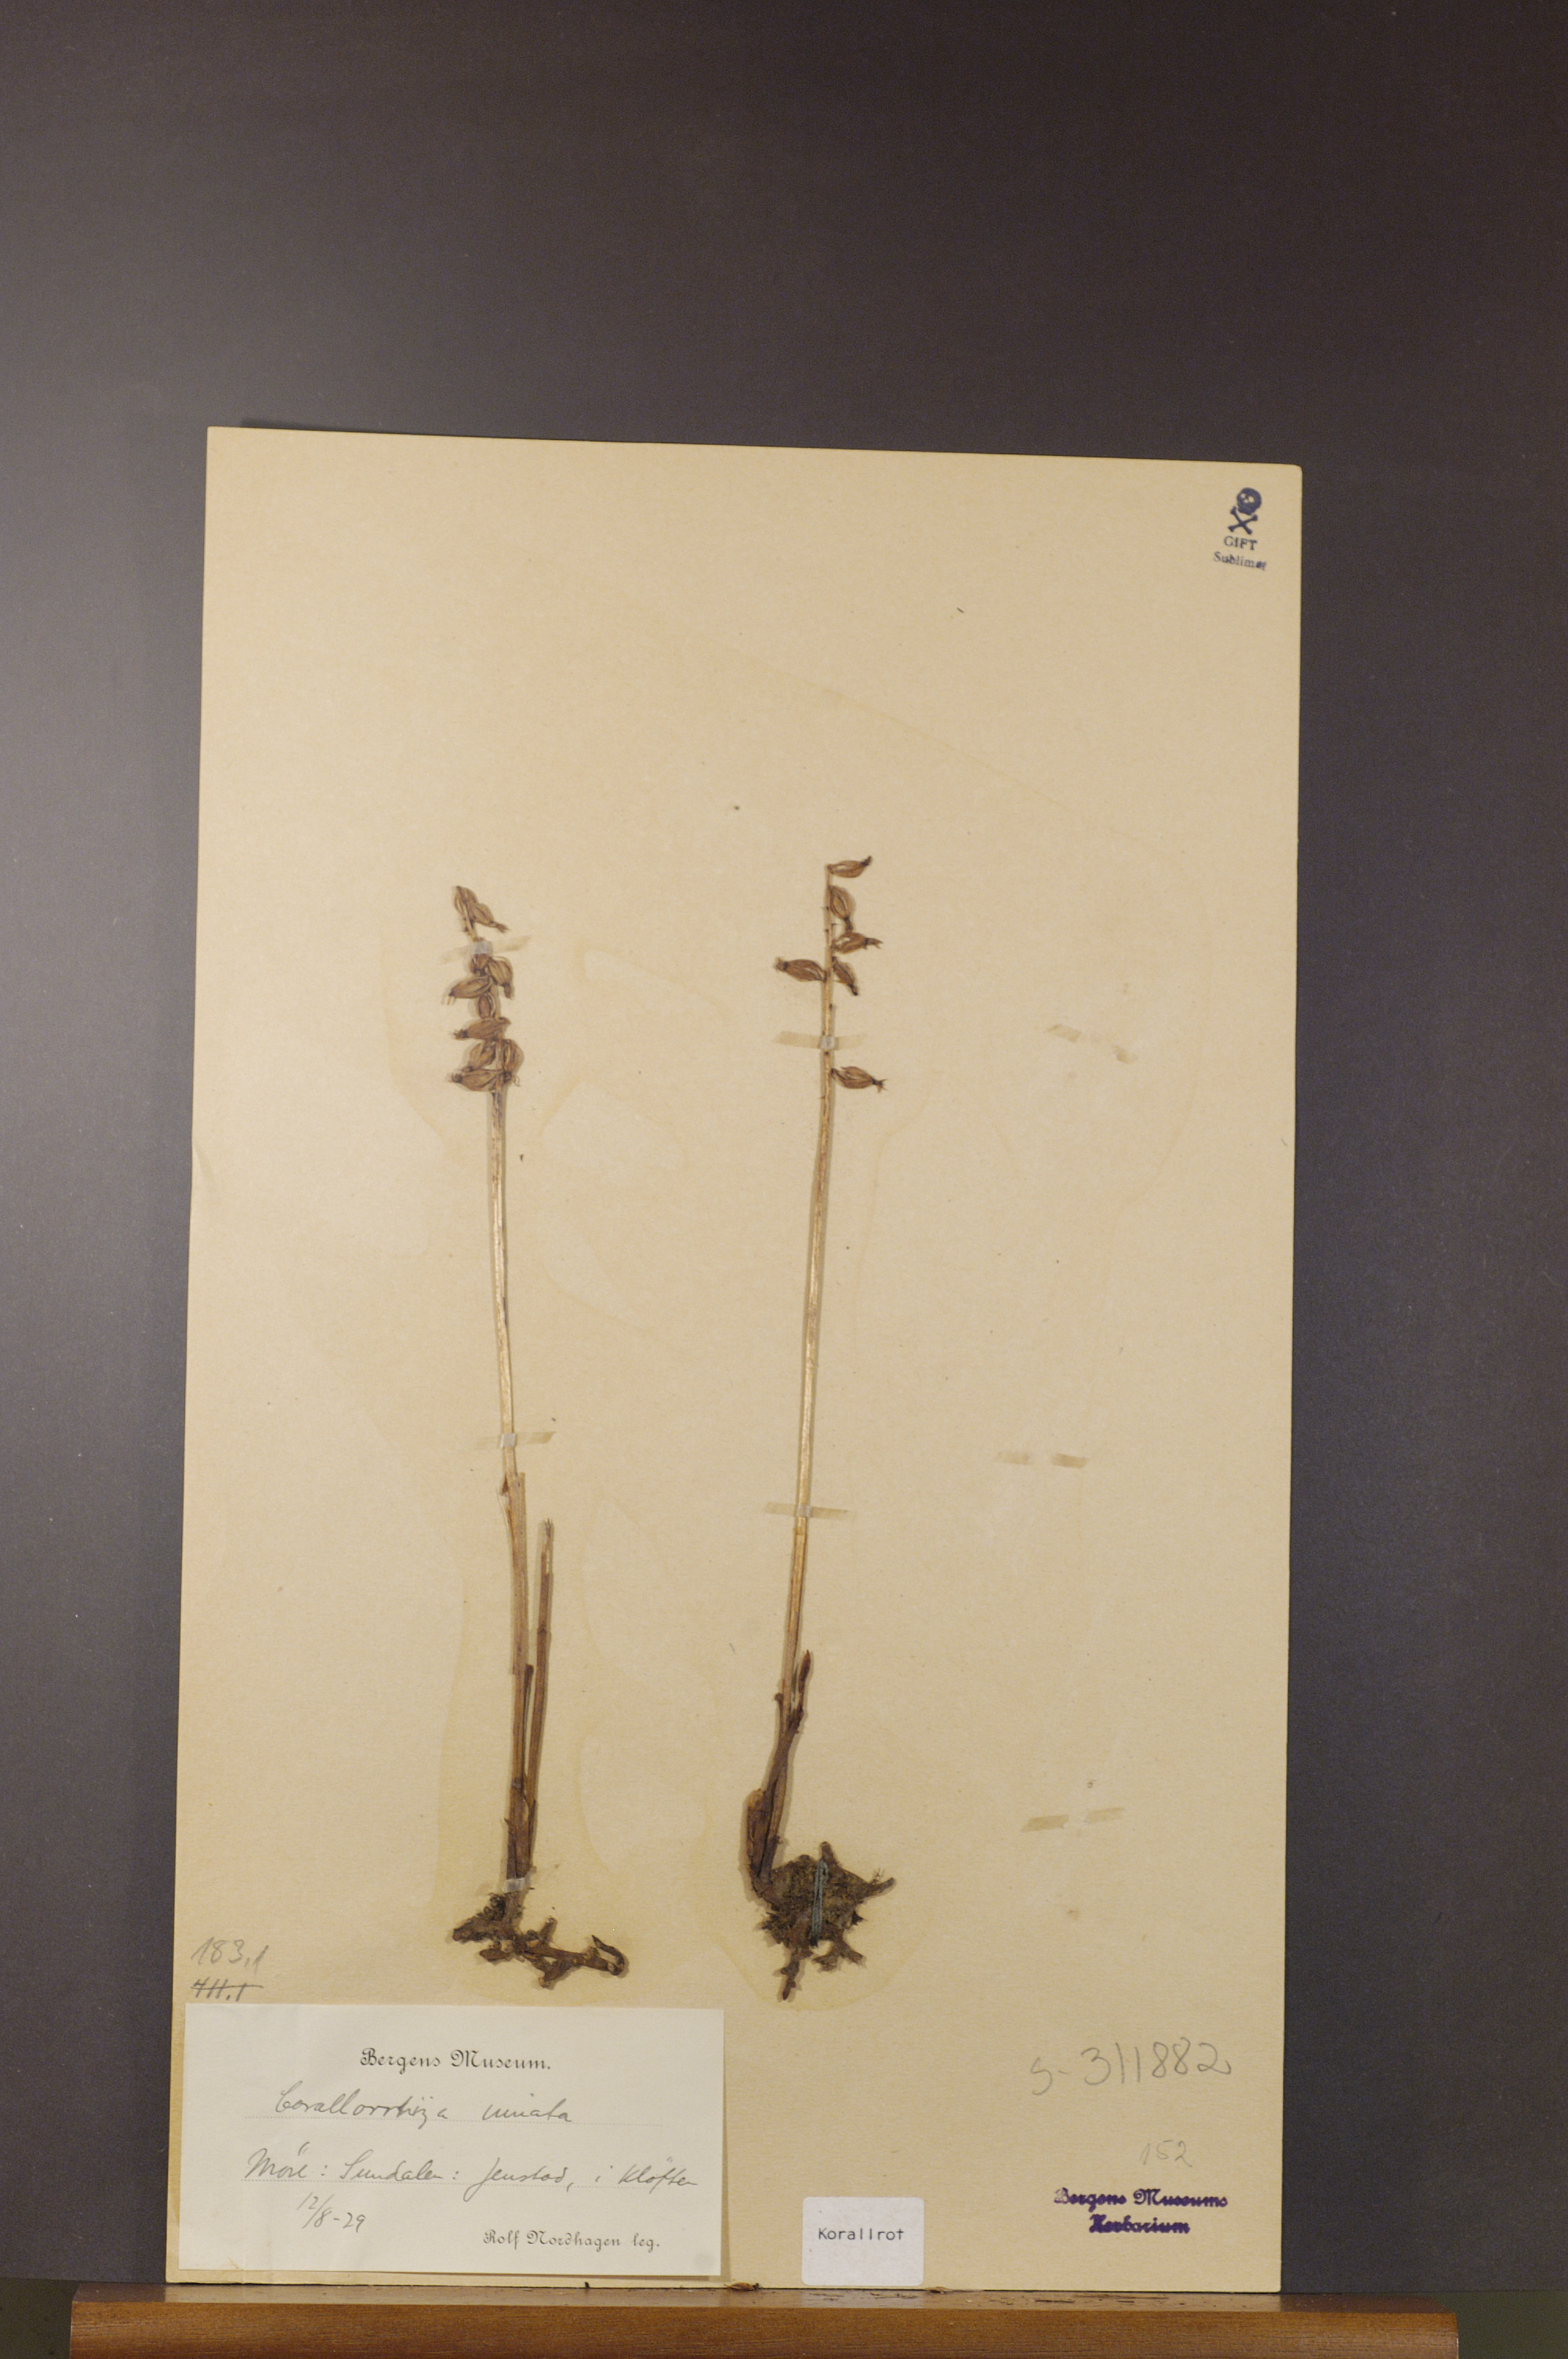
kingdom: Plantae
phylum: Tracheophyta
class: Liliopsida
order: Asparagales
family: Orchidaceae
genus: Corallorhiza
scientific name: Corallorhiza trifida
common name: Yellow coralroot
